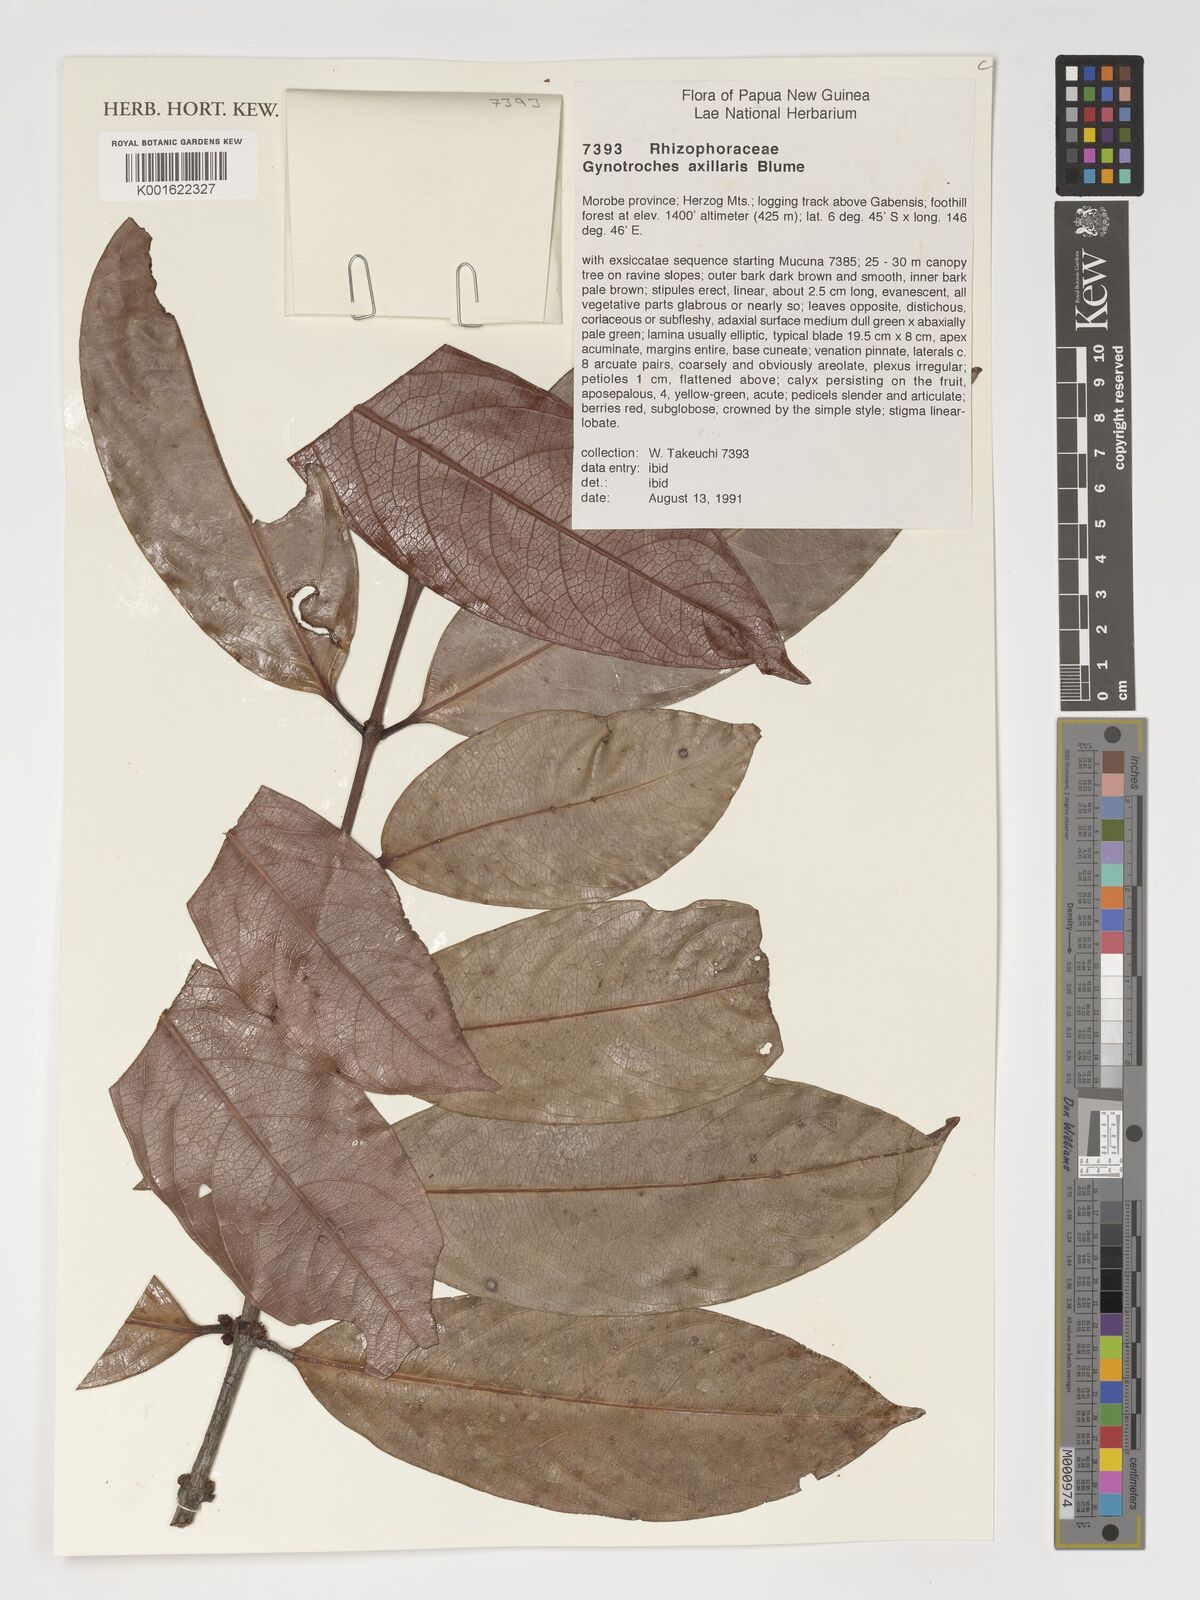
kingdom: Plantae
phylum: Tracheophyta
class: Magnoliopsida
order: Malpighiales
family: Rhizophoraceae
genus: Gynotroches
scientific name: Gynotroches axillaris
